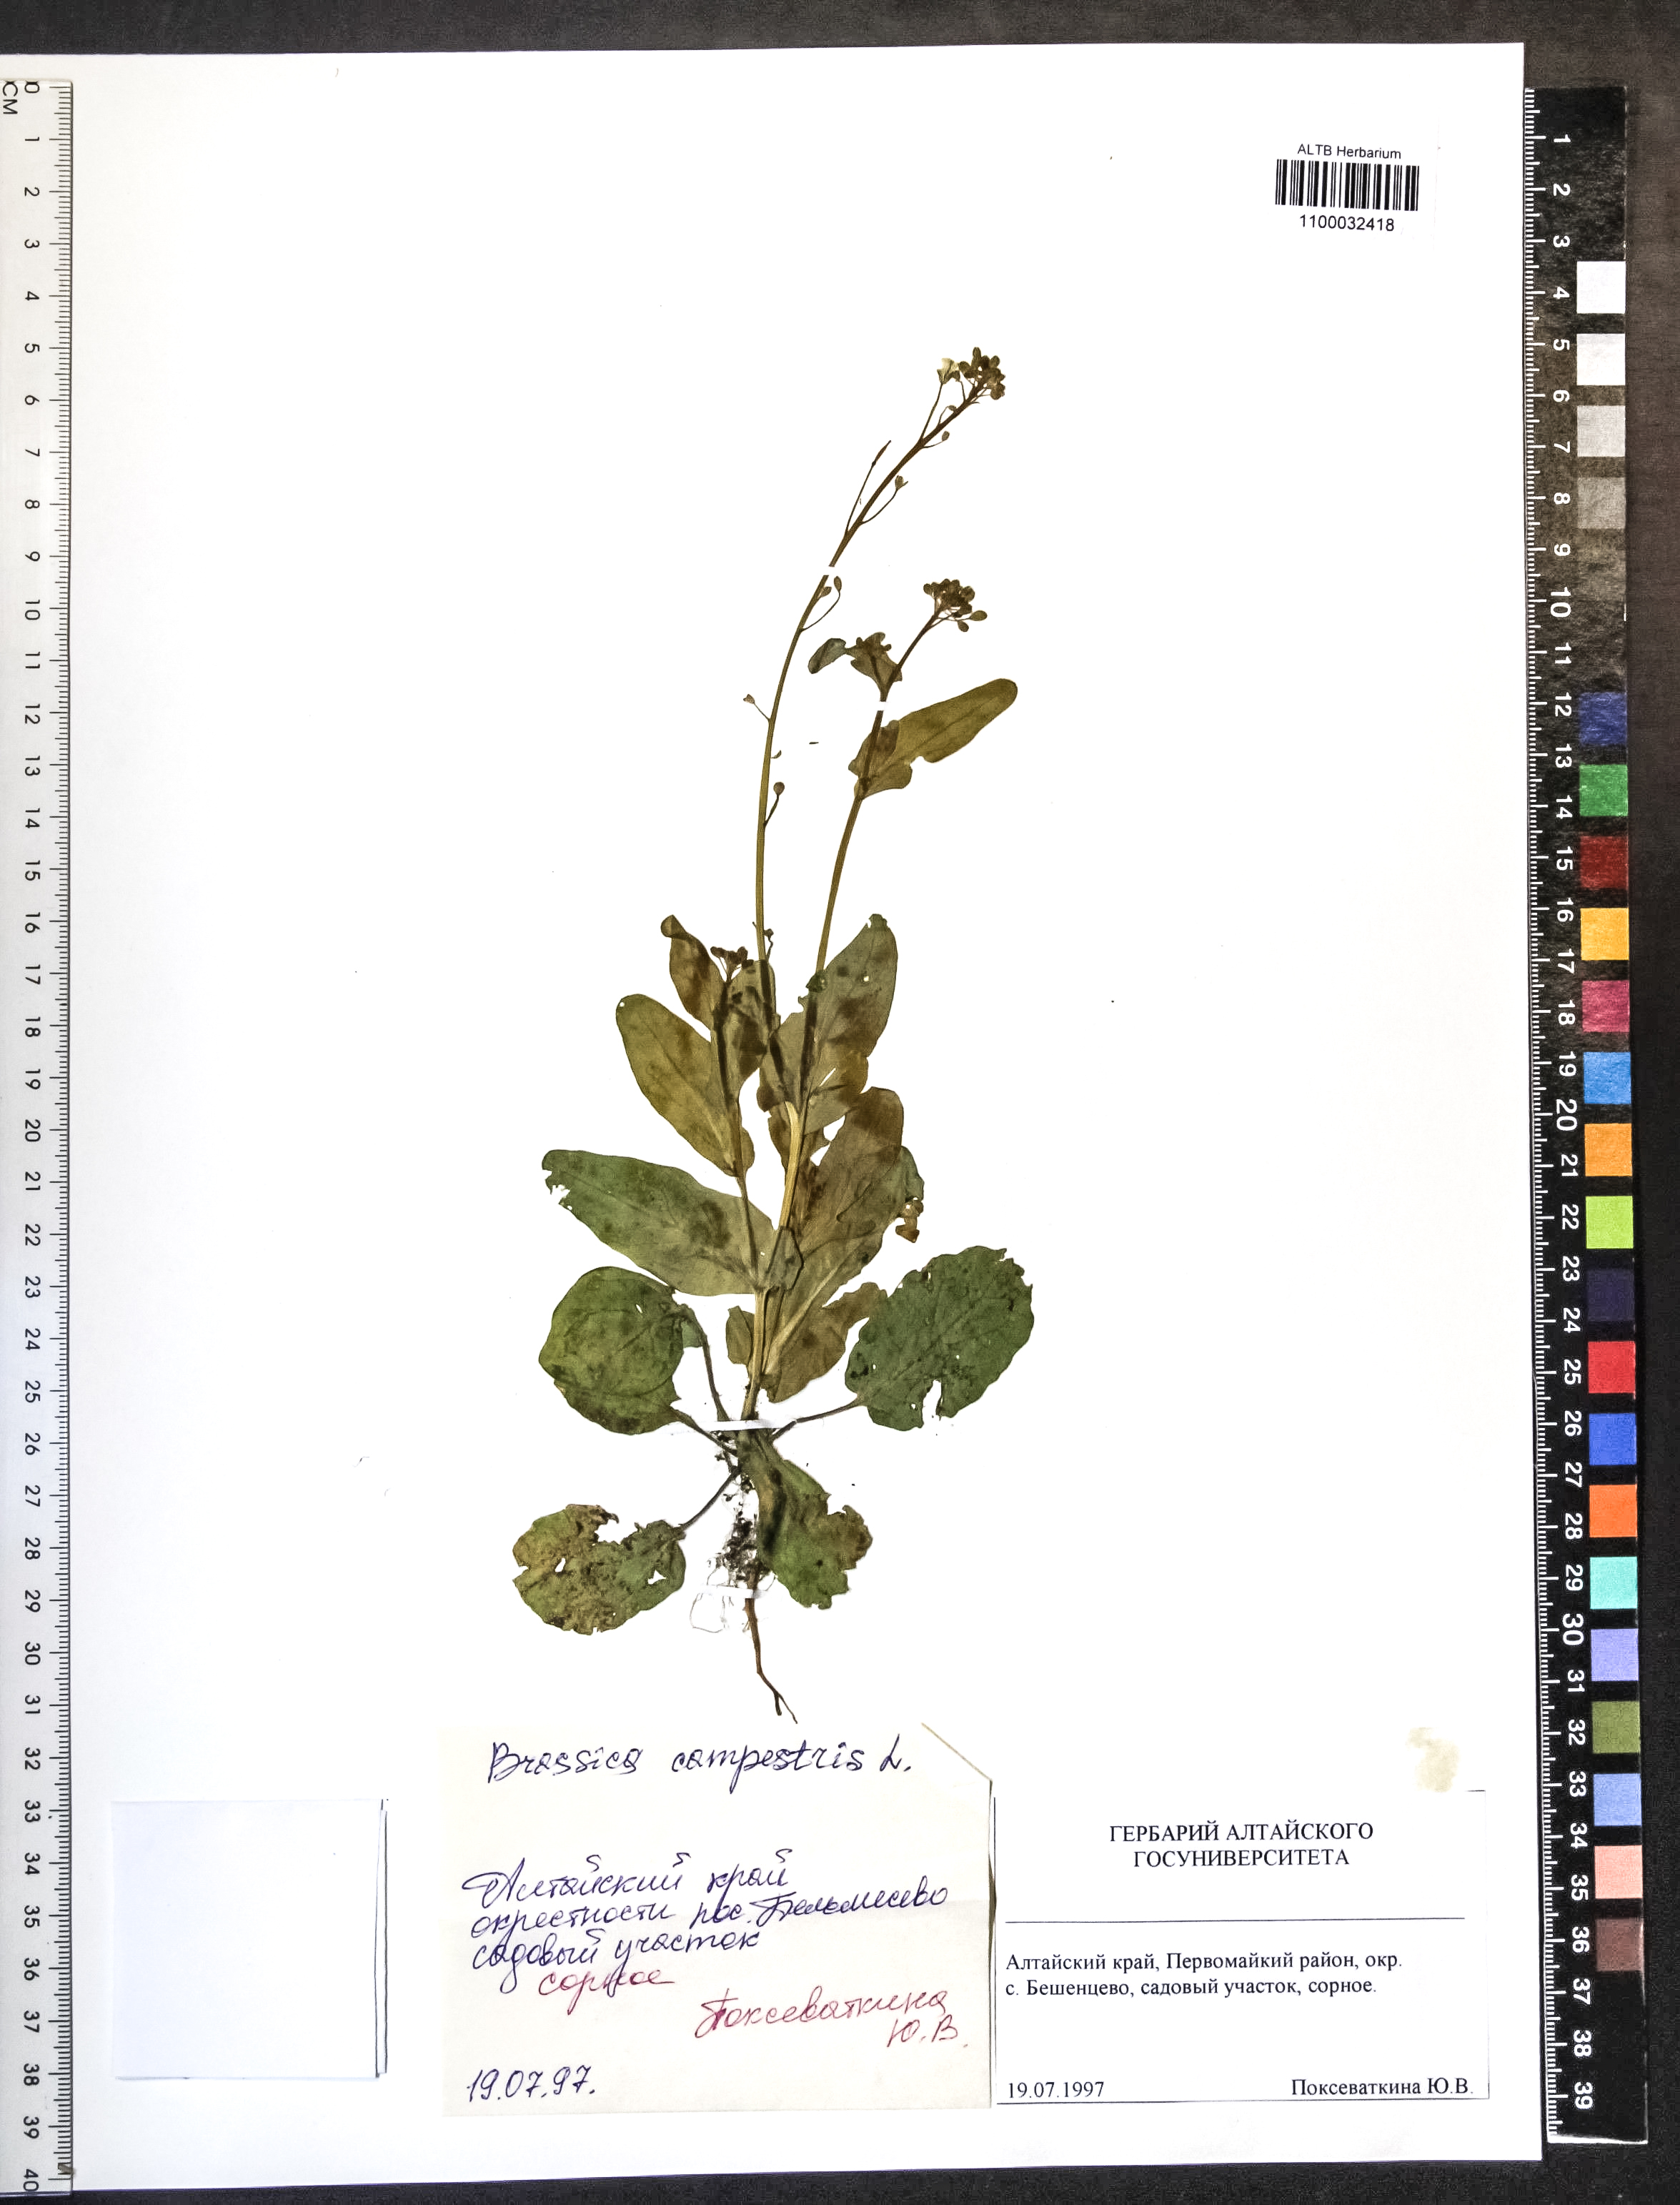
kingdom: Plantae
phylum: Tracheophyta
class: Magnoliopsida
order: Brassicales
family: Brassicaceae
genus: Brassica
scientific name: Brassica rapa
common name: Field mustard
